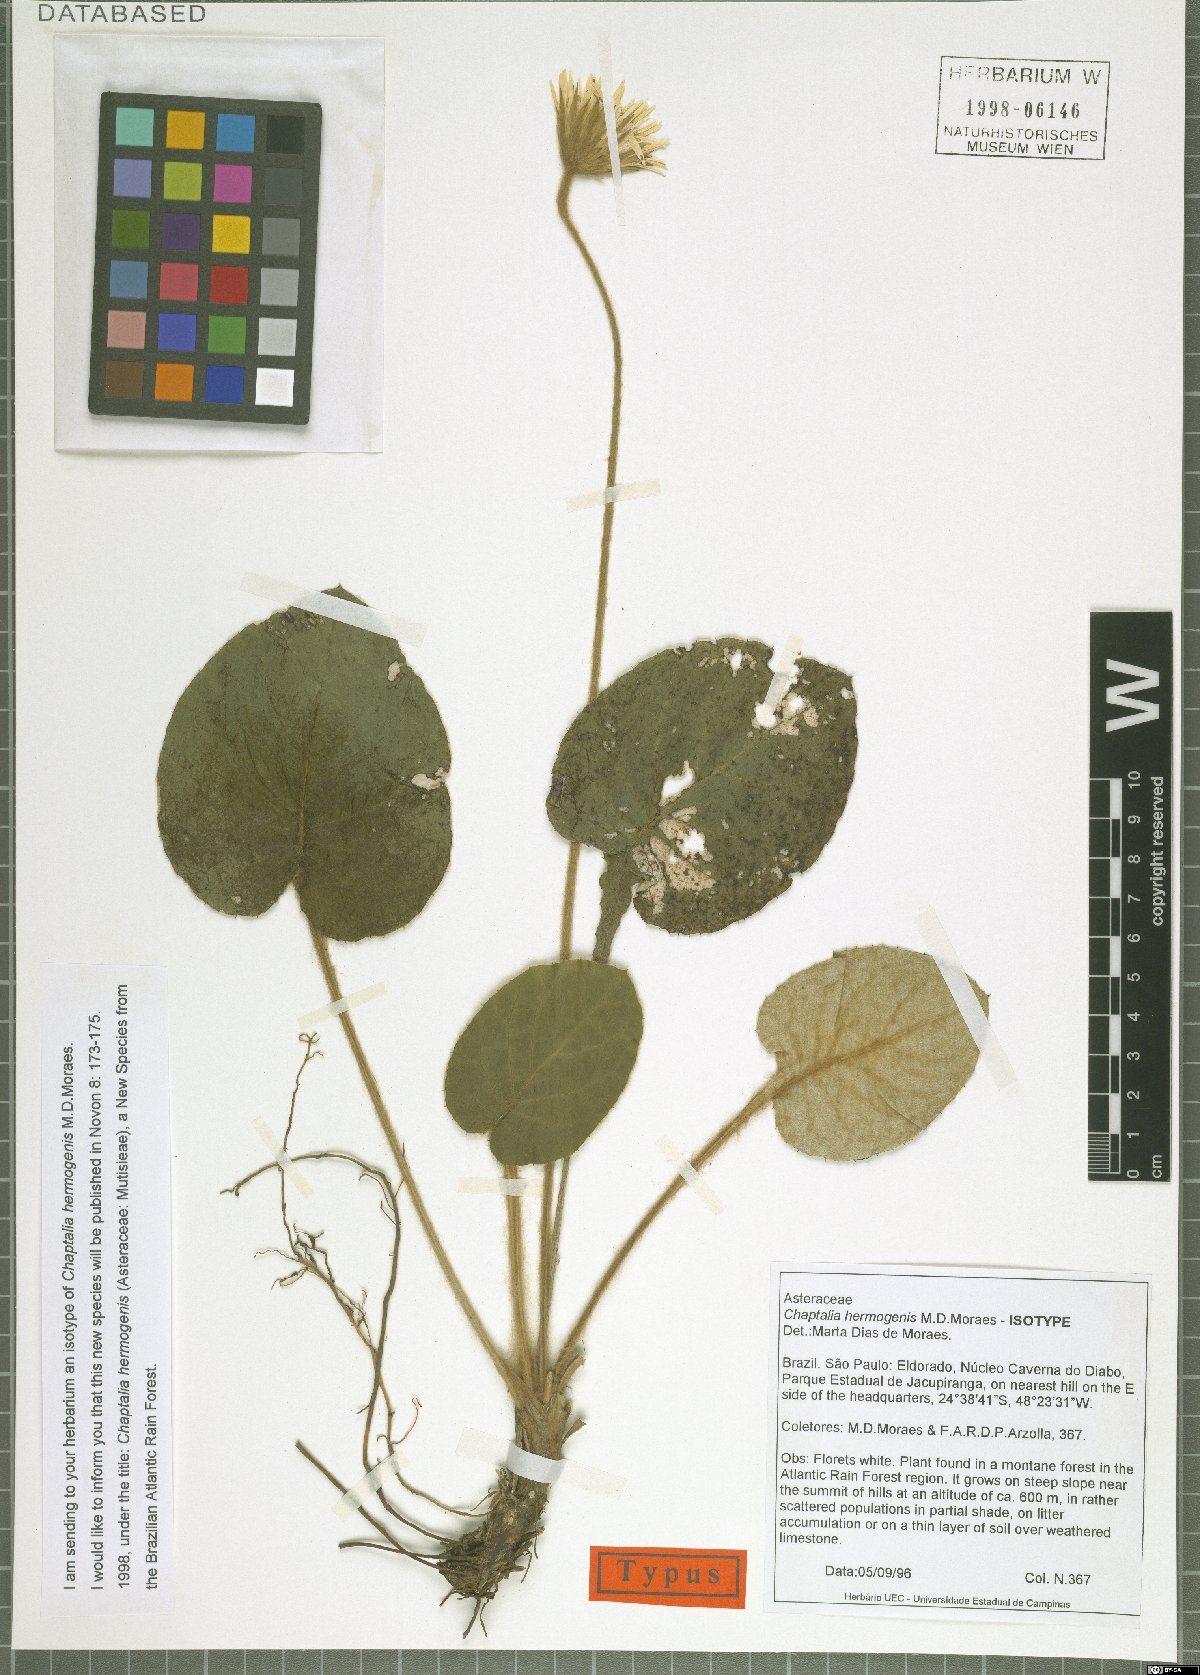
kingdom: Plantae
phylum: Tracheophyta
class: Magnoliopsida
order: Asterales
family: Asteraceae
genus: Chaptalia
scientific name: Chaptalia hermogenis
